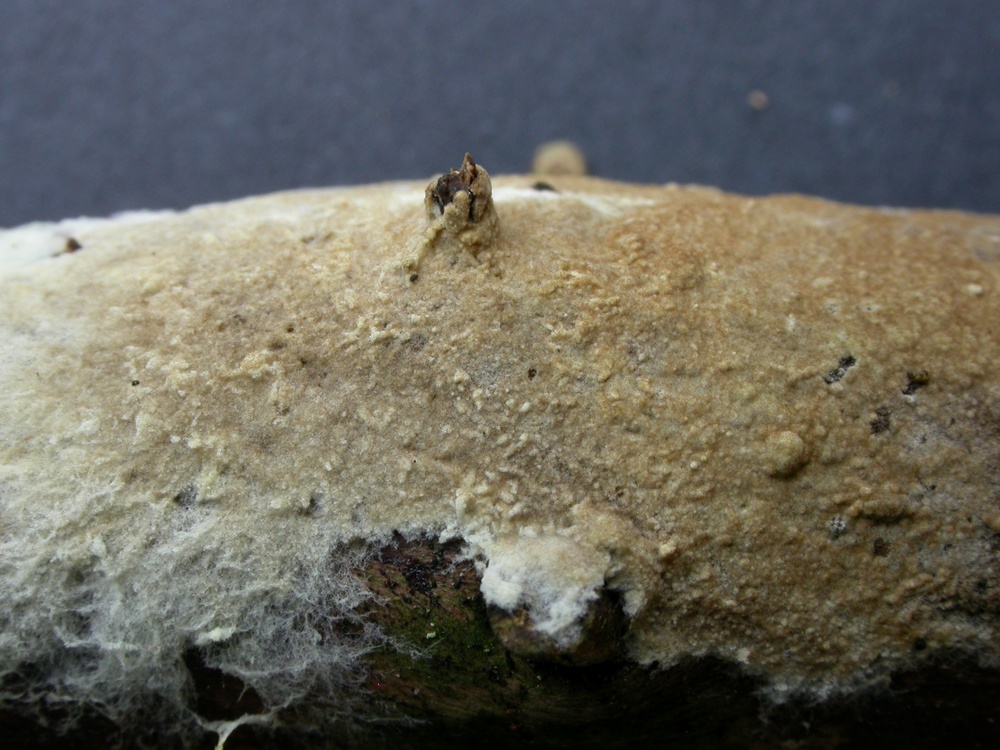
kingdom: Fungi
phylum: Basidiomycota
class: Agaricomycetes
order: Boletales
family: Coniophoraceae
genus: Coniophora
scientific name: Coniophora arida
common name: tynd tømmersvamp
